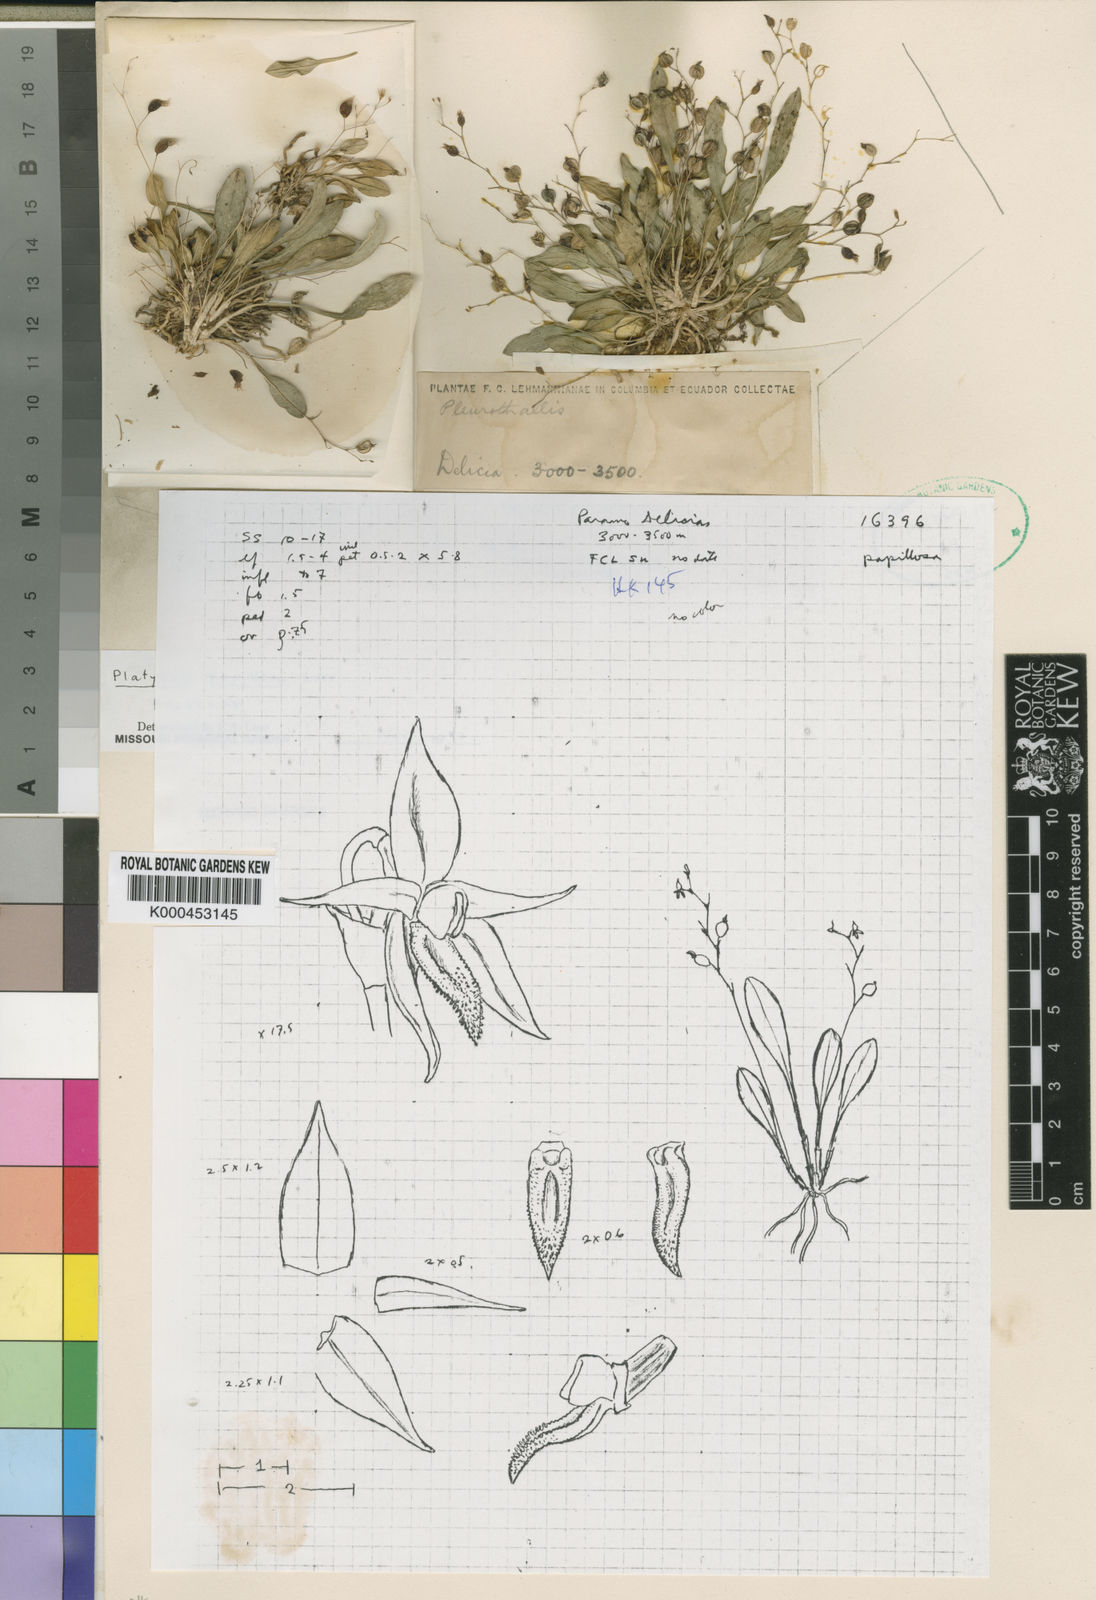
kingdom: Plantae
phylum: Tracheophyta
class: Liliopsida
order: Asparagales
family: Orchidaceae
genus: Platystele
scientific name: Platystele papillosa
